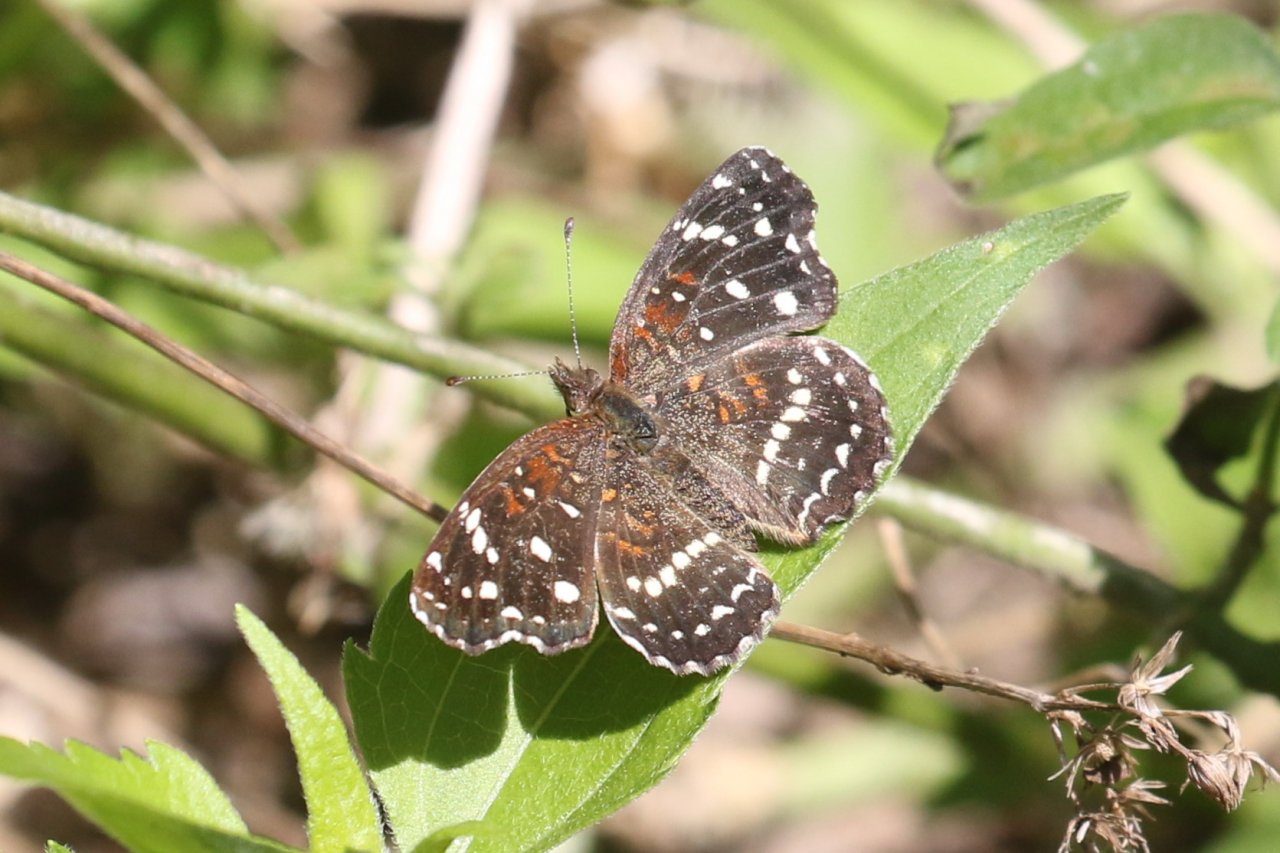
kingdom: Animalia
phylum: Arthropoda
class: Insecta
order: Lepidoptera
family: Nymphalidae
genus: Anthanassa
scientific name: Anthanassa texana
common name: Texan Crescent
